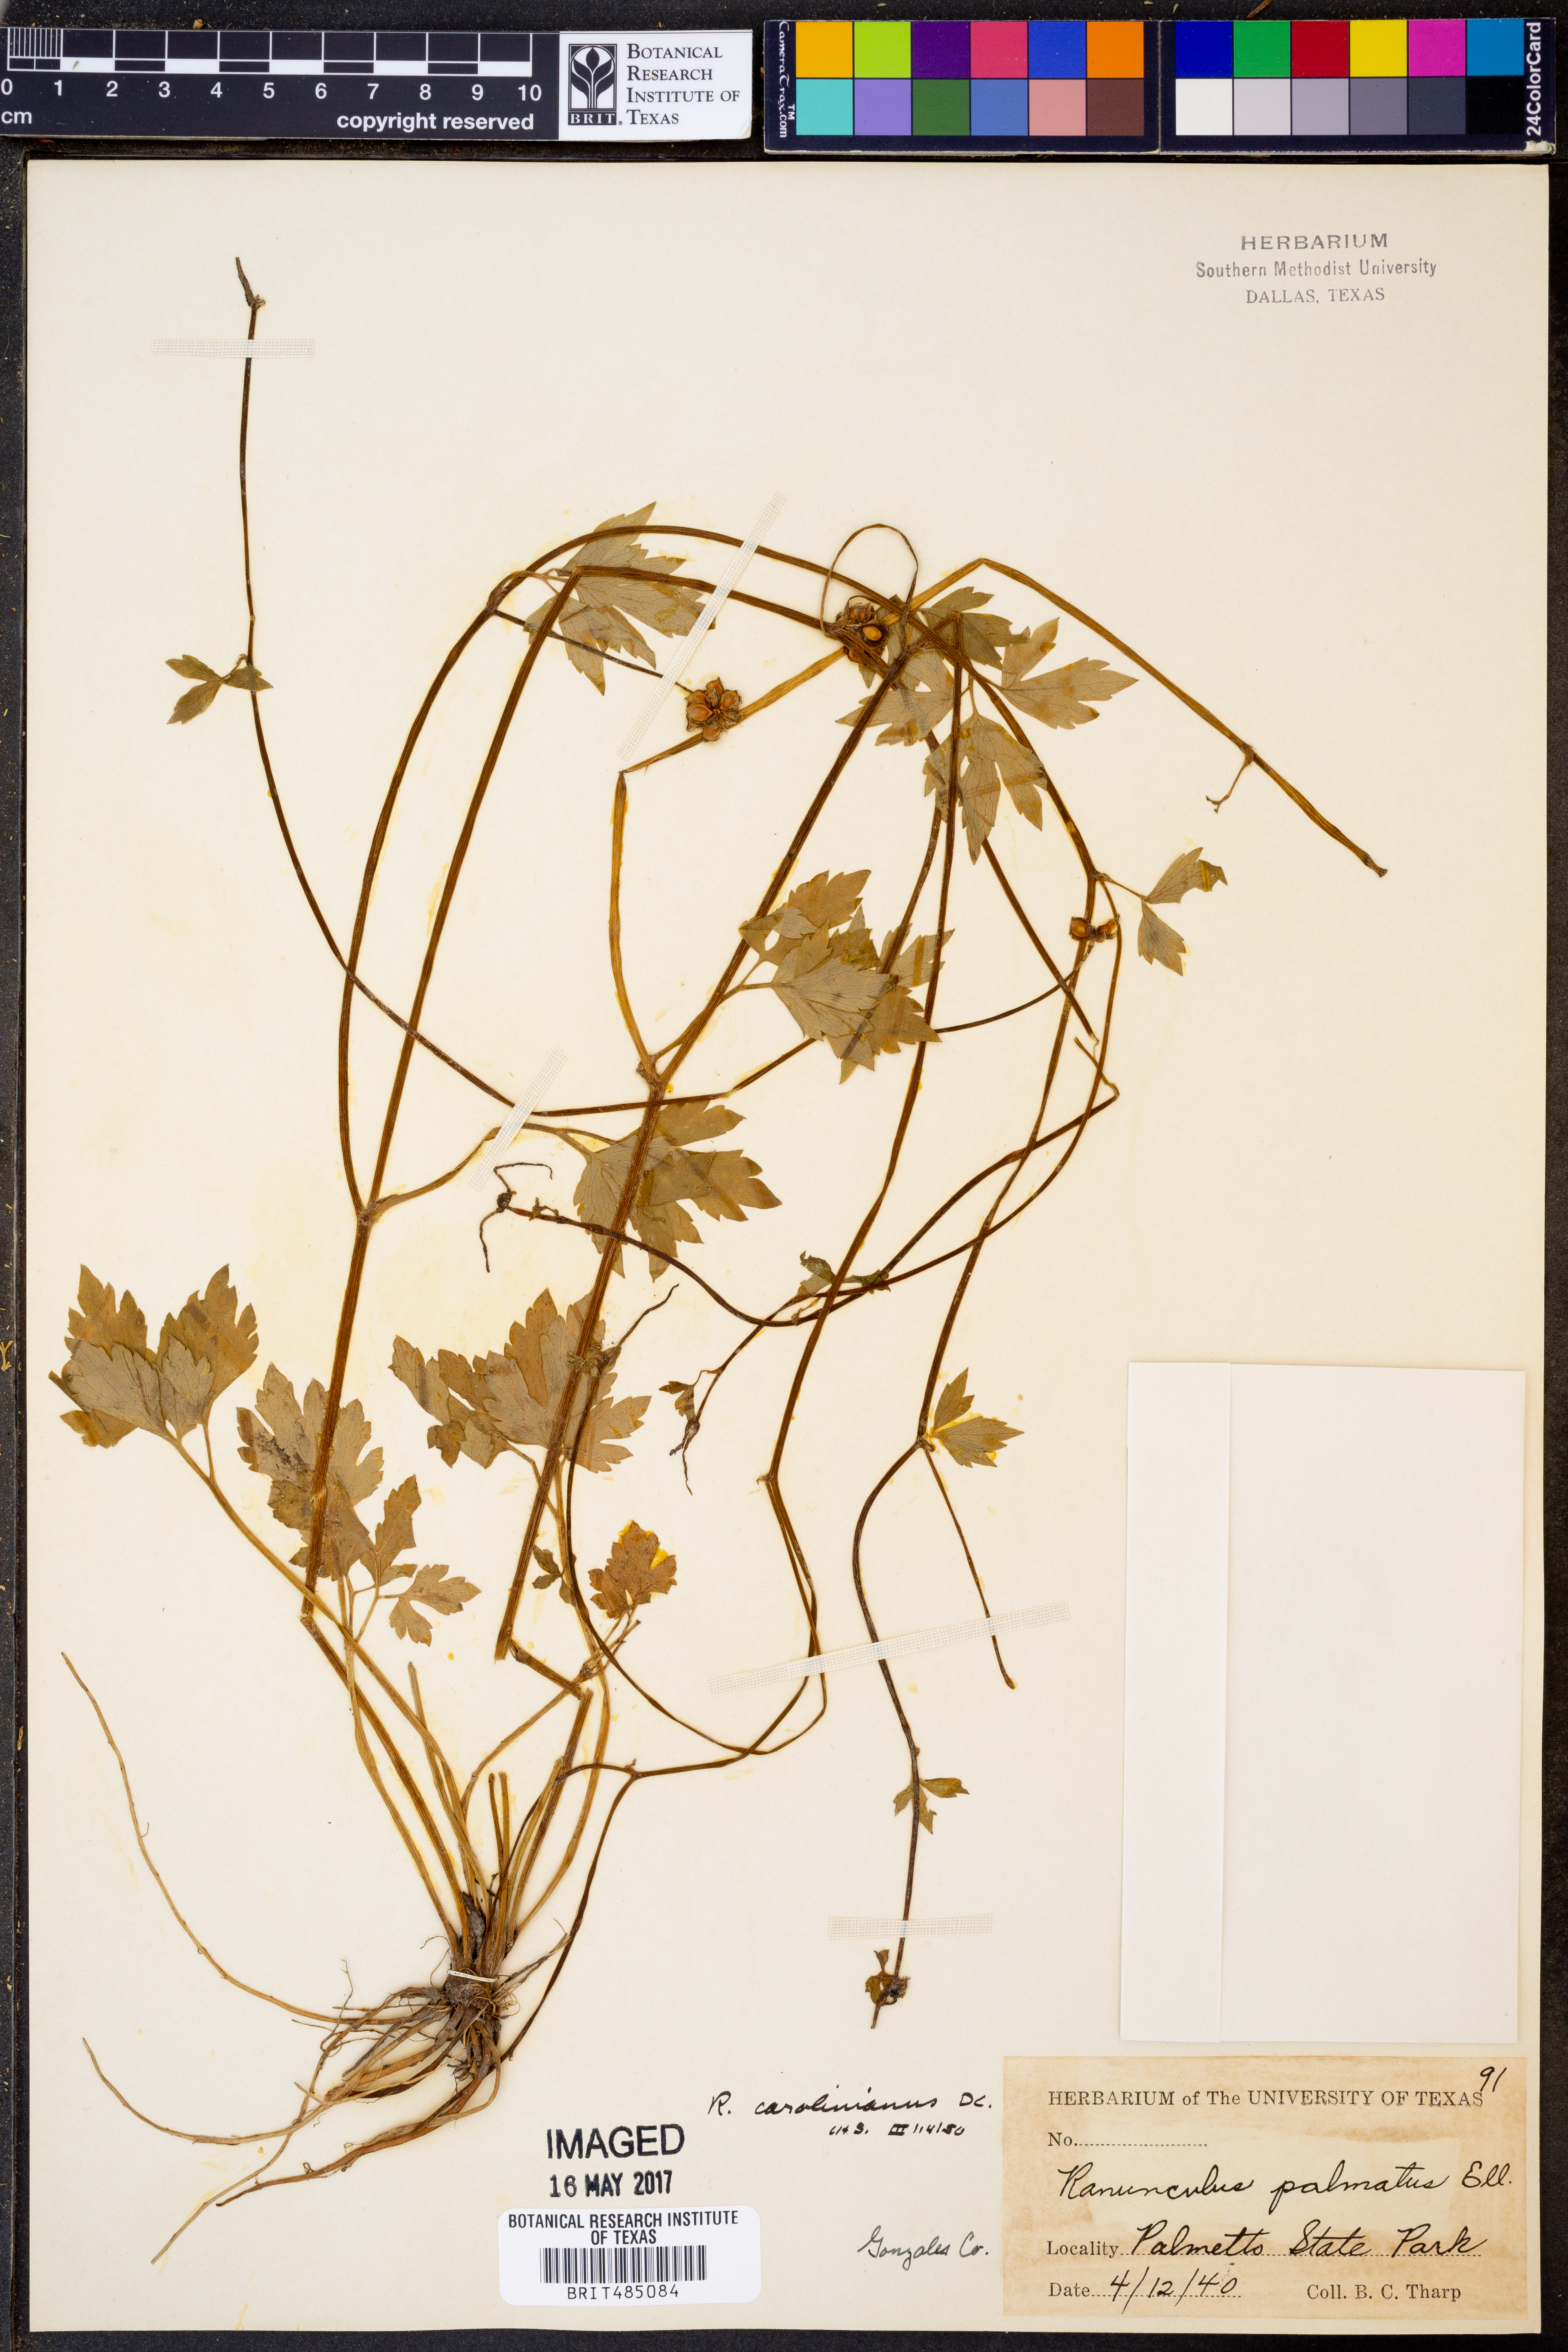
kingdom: Plantae
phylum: Tracheophyta
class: Magnoliopsida
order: Ranunculales
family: Ranunculaceae
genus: Ranunculus
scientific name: Ranunculus hispidus
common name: Bristly buttercup
